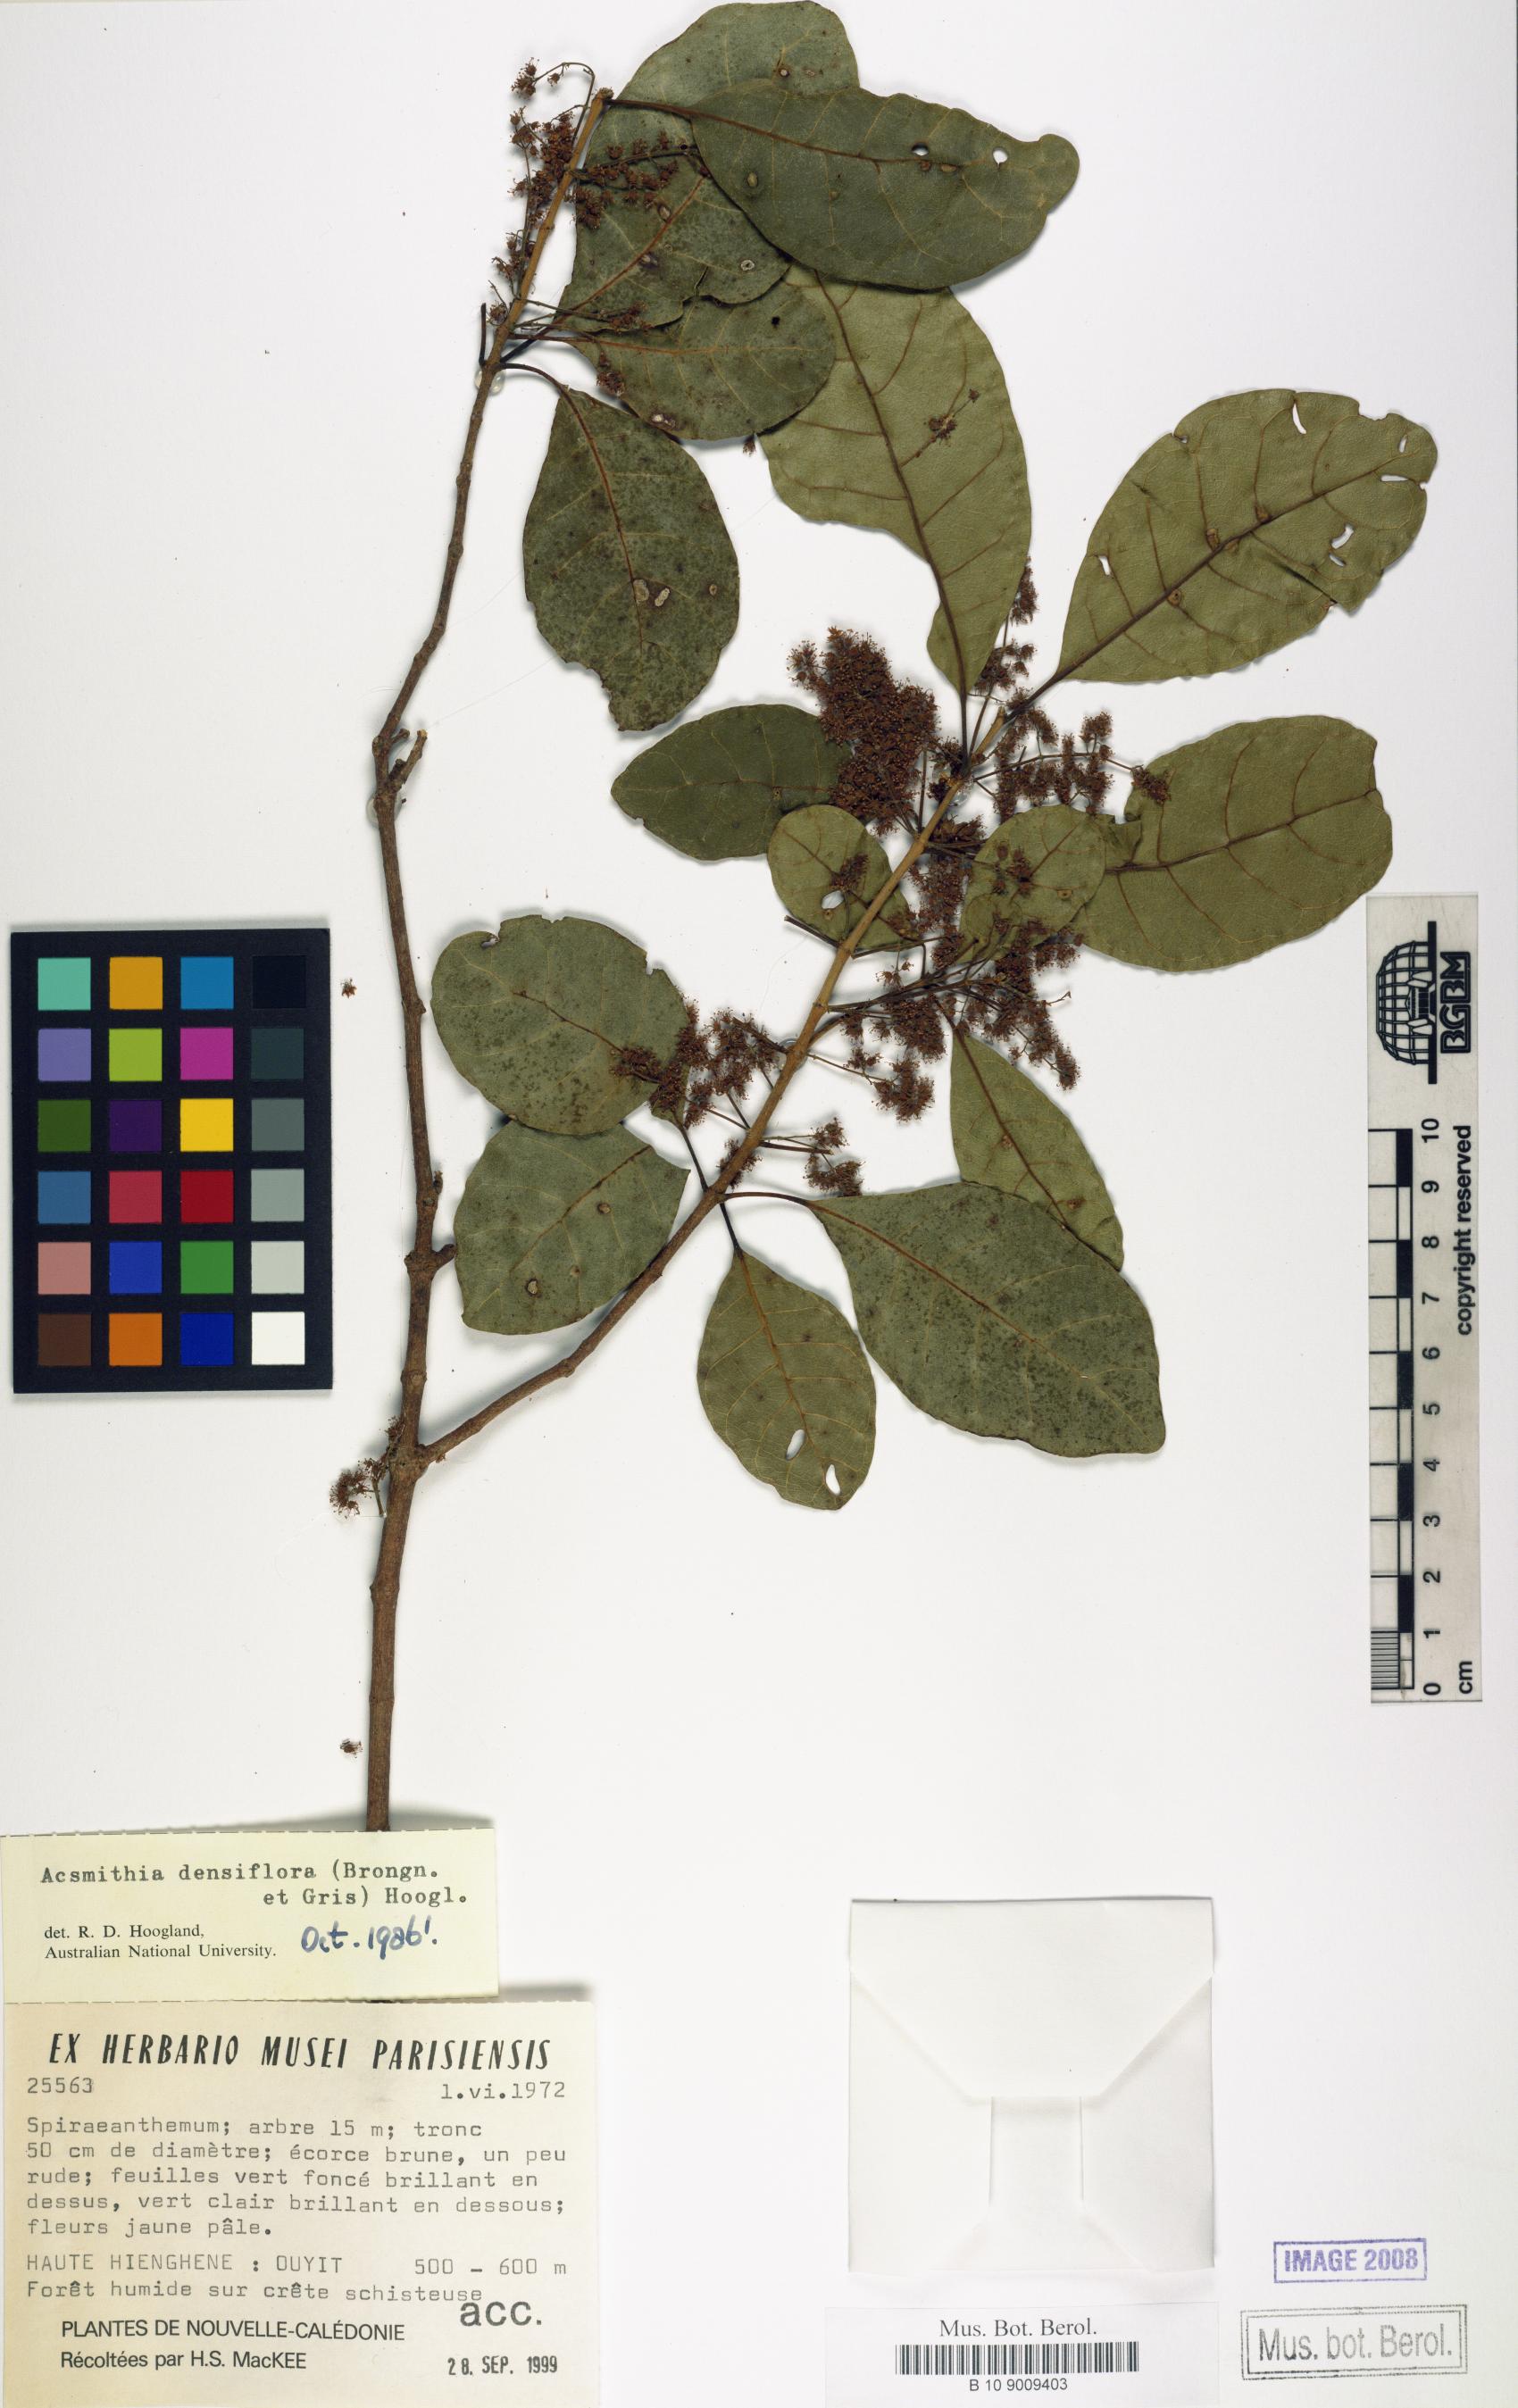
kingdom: Plantae
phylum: Tracheophyta
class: Magnoliopsida
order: Oxalidales
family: Cunoniaceae
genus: Spiraeanthemum
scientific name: Spiraeanthemum densiflorum
